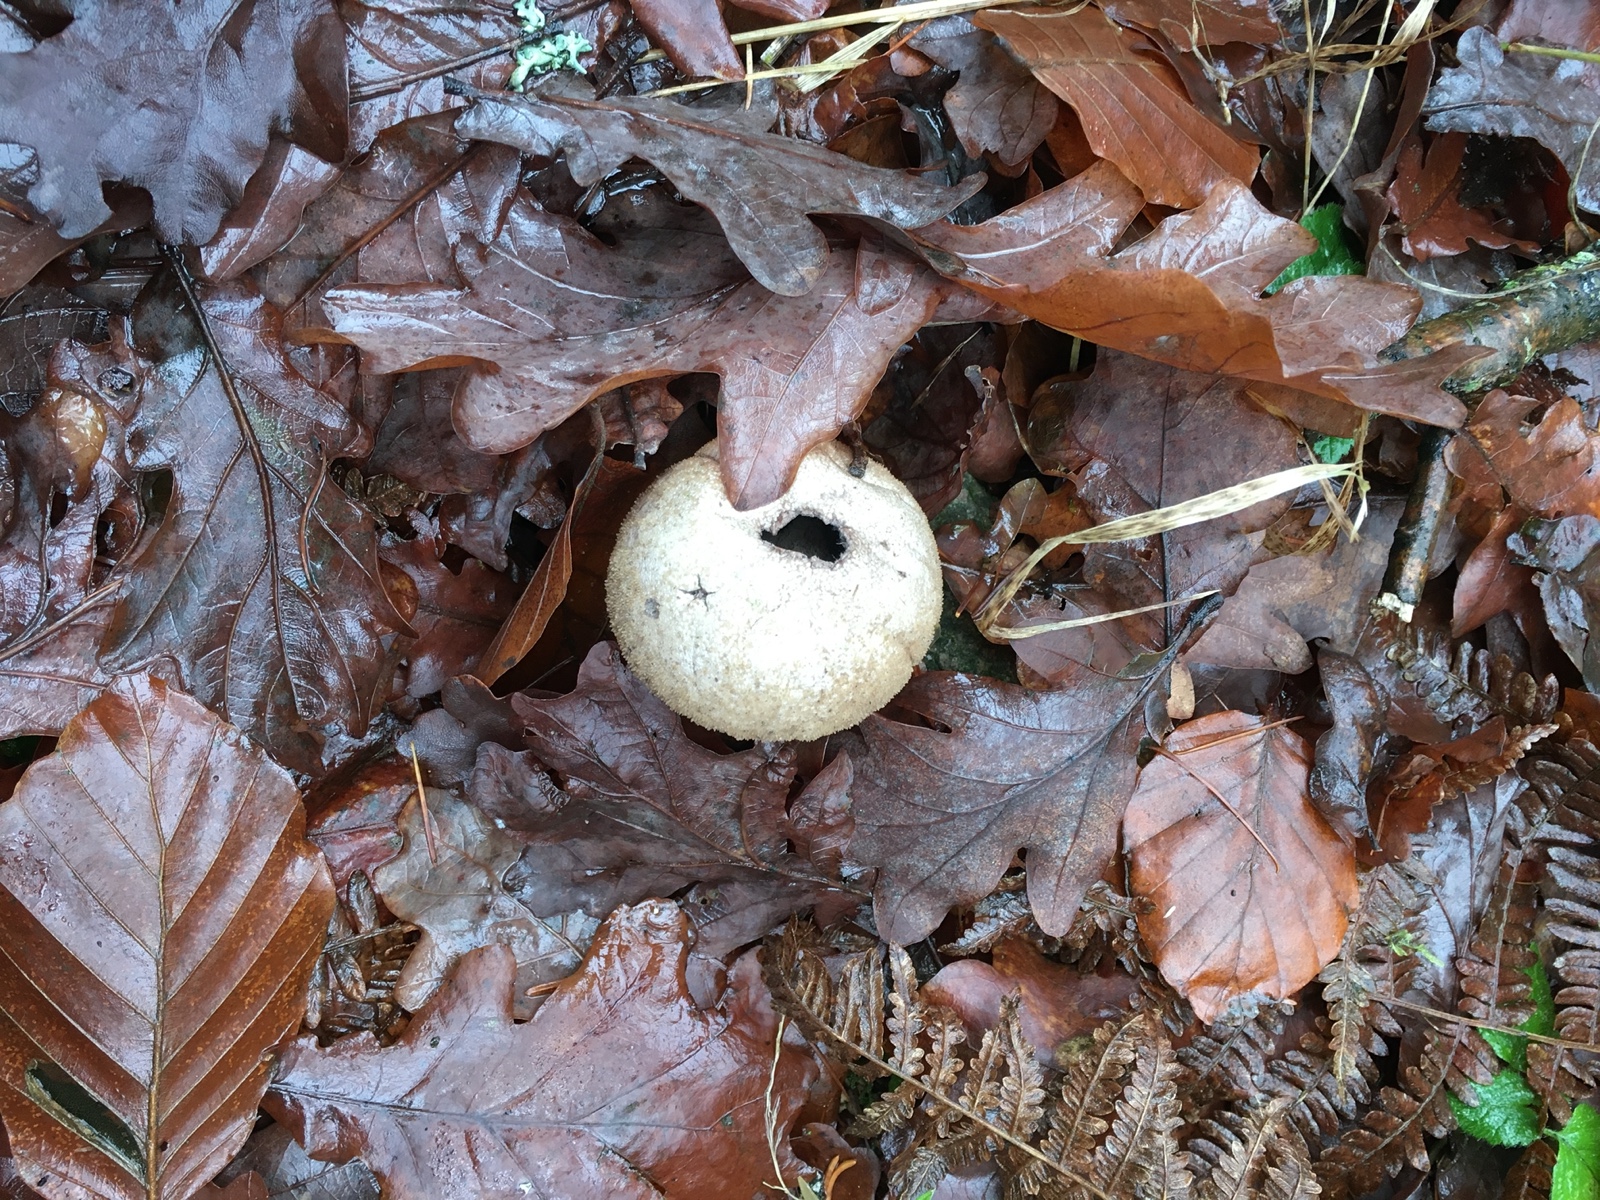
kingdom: Fungi
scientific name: Fungi
